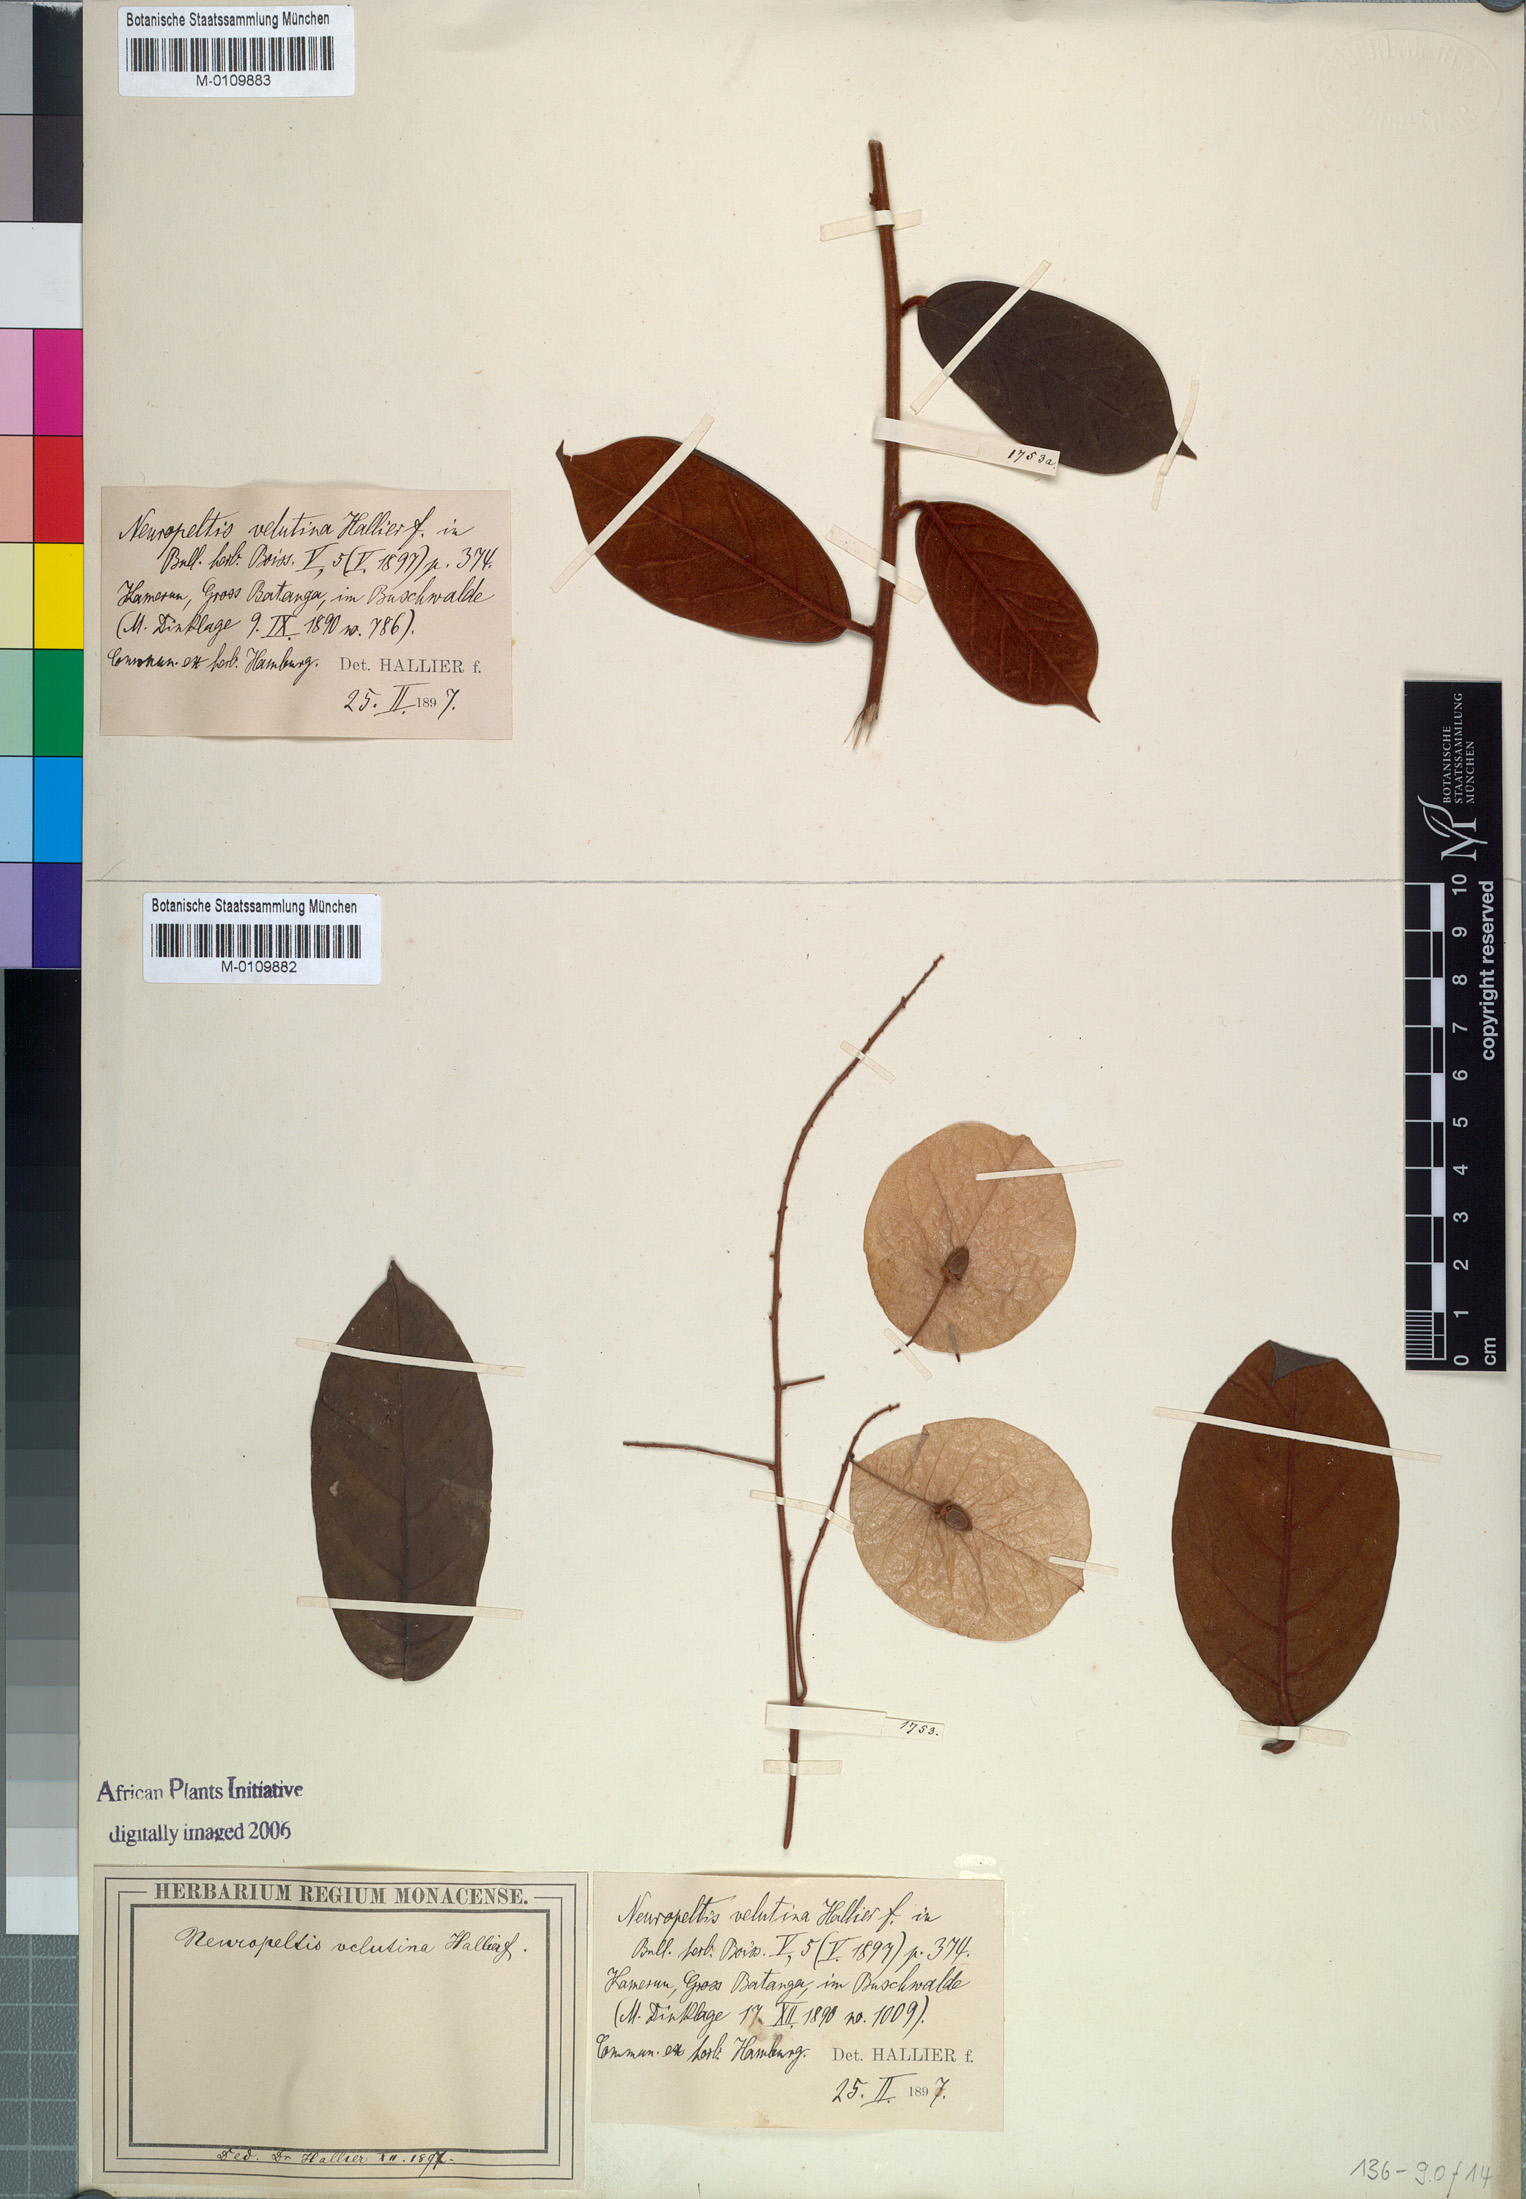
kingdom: Plantae
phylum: Tracheophyta
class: Magnoliopsida
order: Solanales
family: Convolvulaceae
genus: Neuropeltis
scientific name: Neuropeltis velutina
